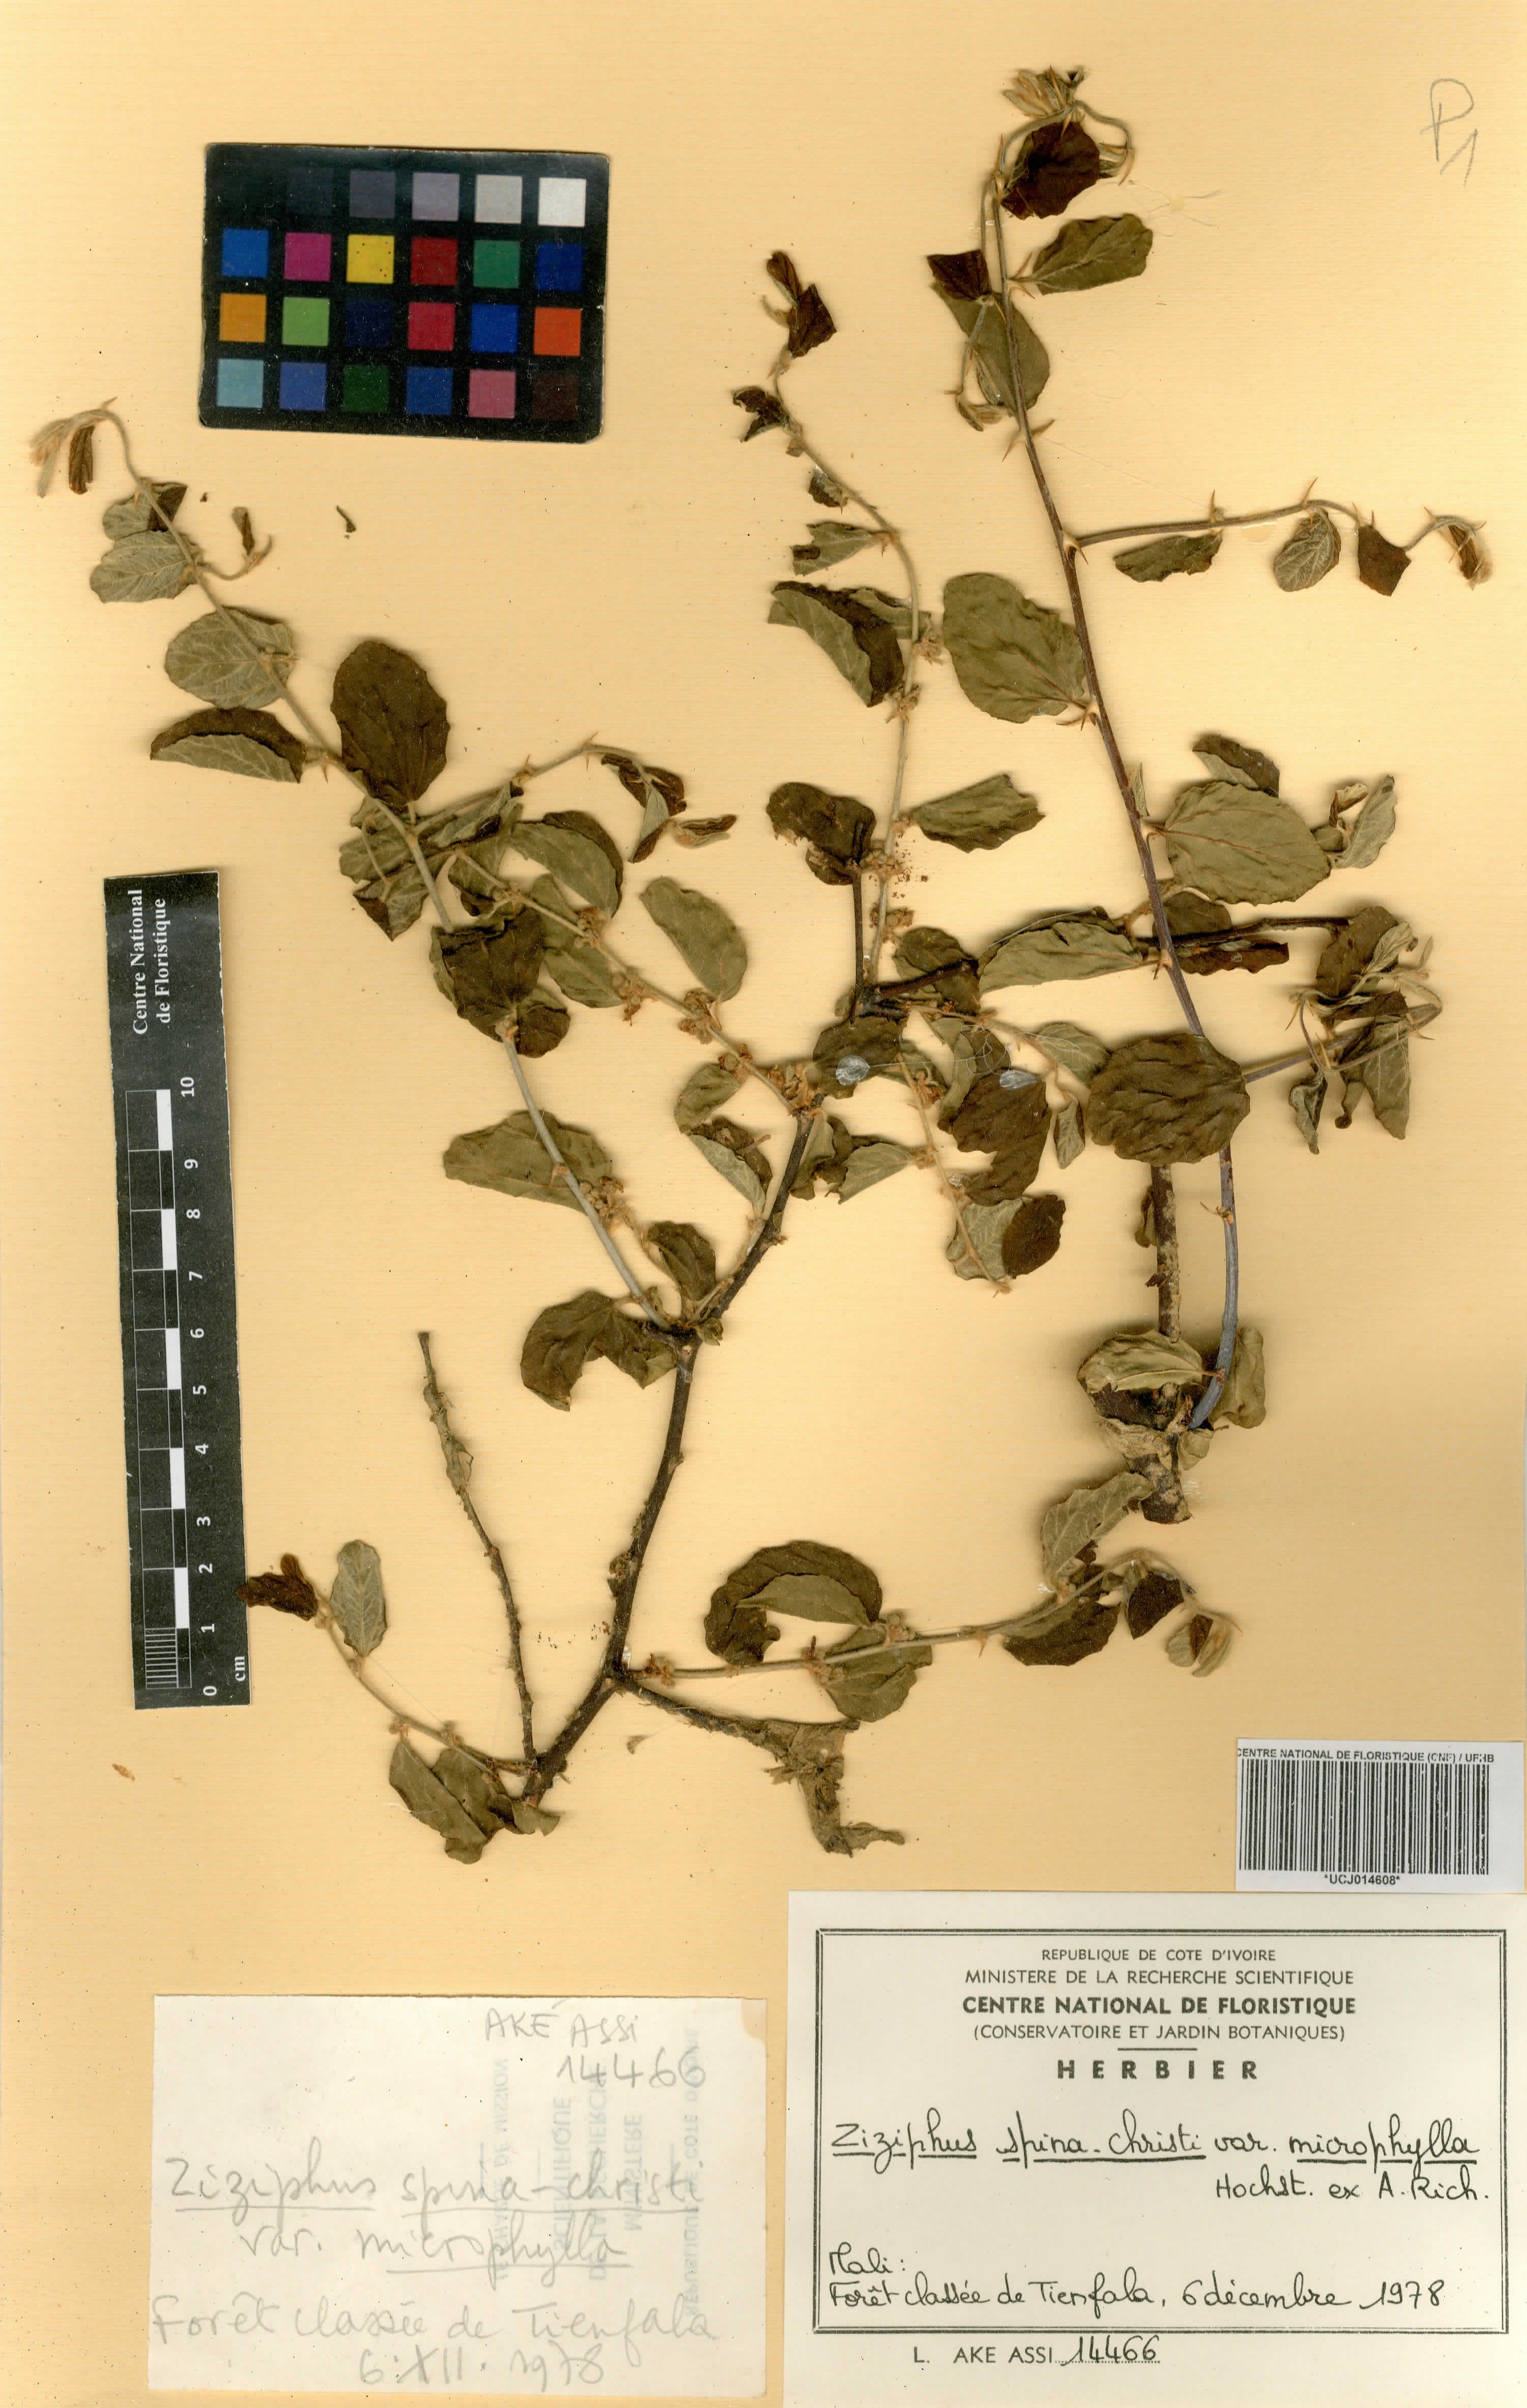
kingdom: Plantae
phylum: Tracheophyta
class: Magnoliopsida
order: Rosales
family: Rhamnaceae
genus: Ziziphus
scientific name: Ziziphus spina-christi
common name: Syrian christ-thorn
